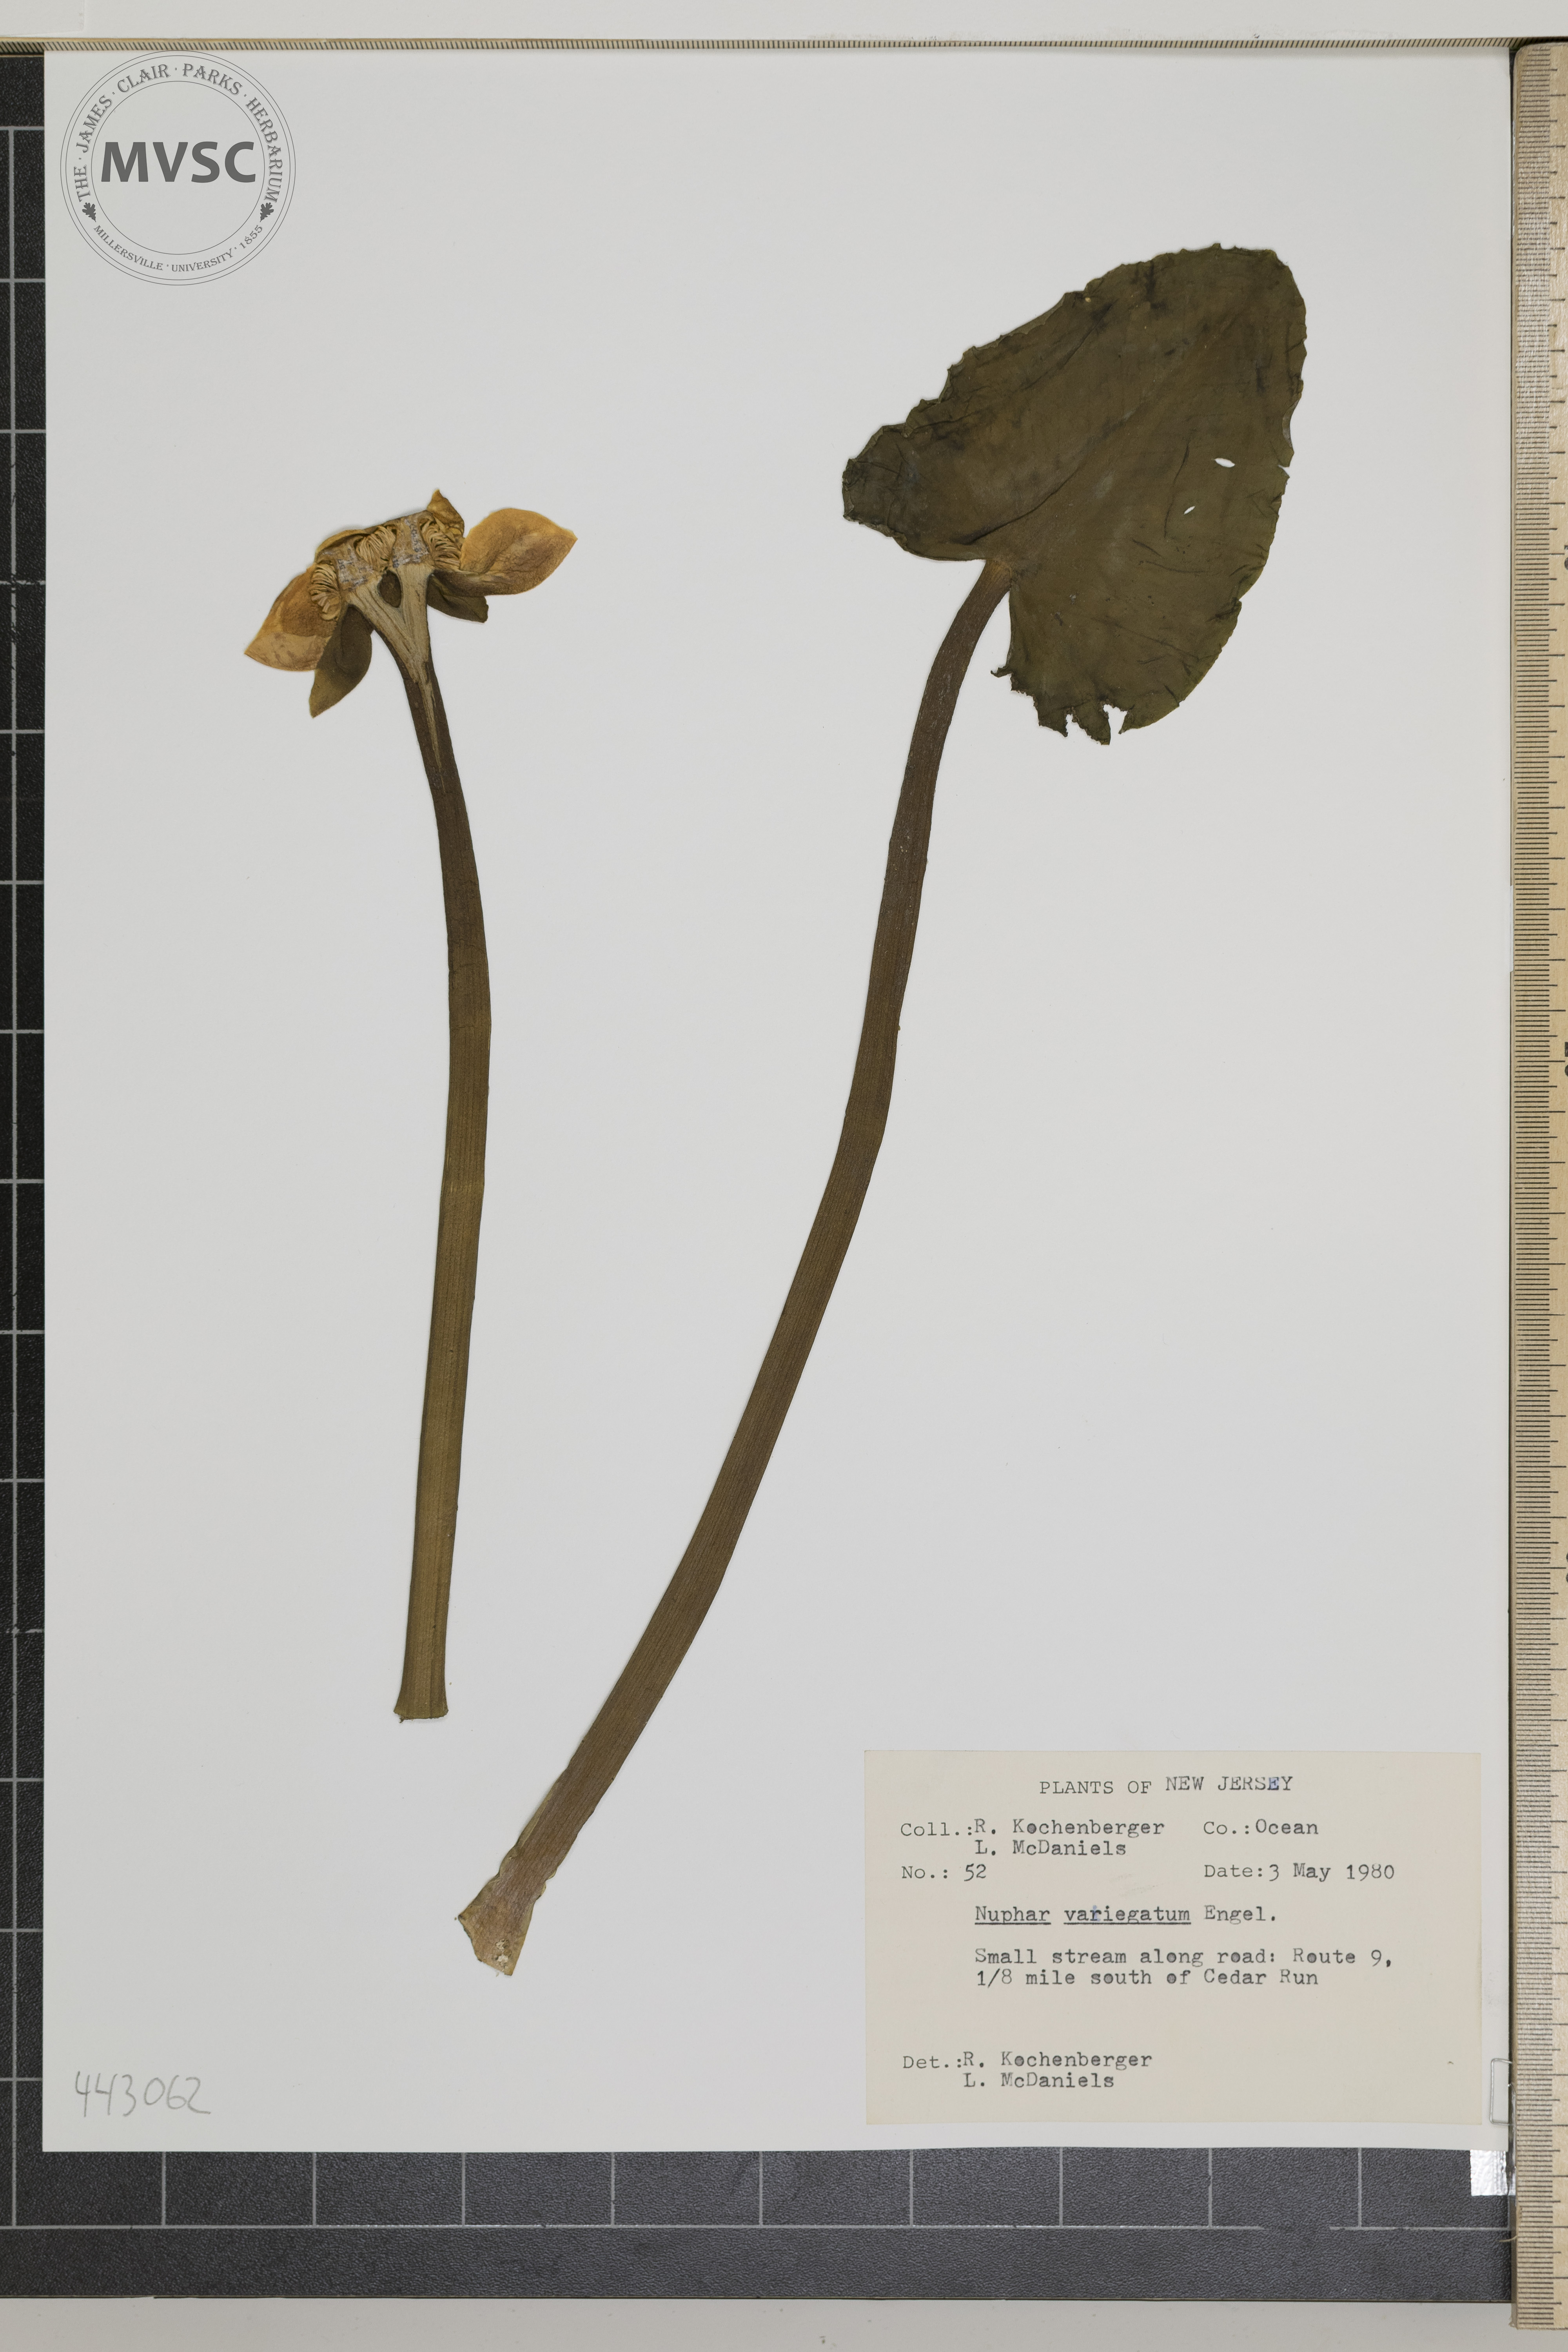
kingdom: Plantae
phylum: Tracheophyta
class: Magnoliopsida
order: Nymphaeales
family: Nymphaeaceae
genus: Nuphar
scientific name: Nuphar variegata
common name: Beaver-root
